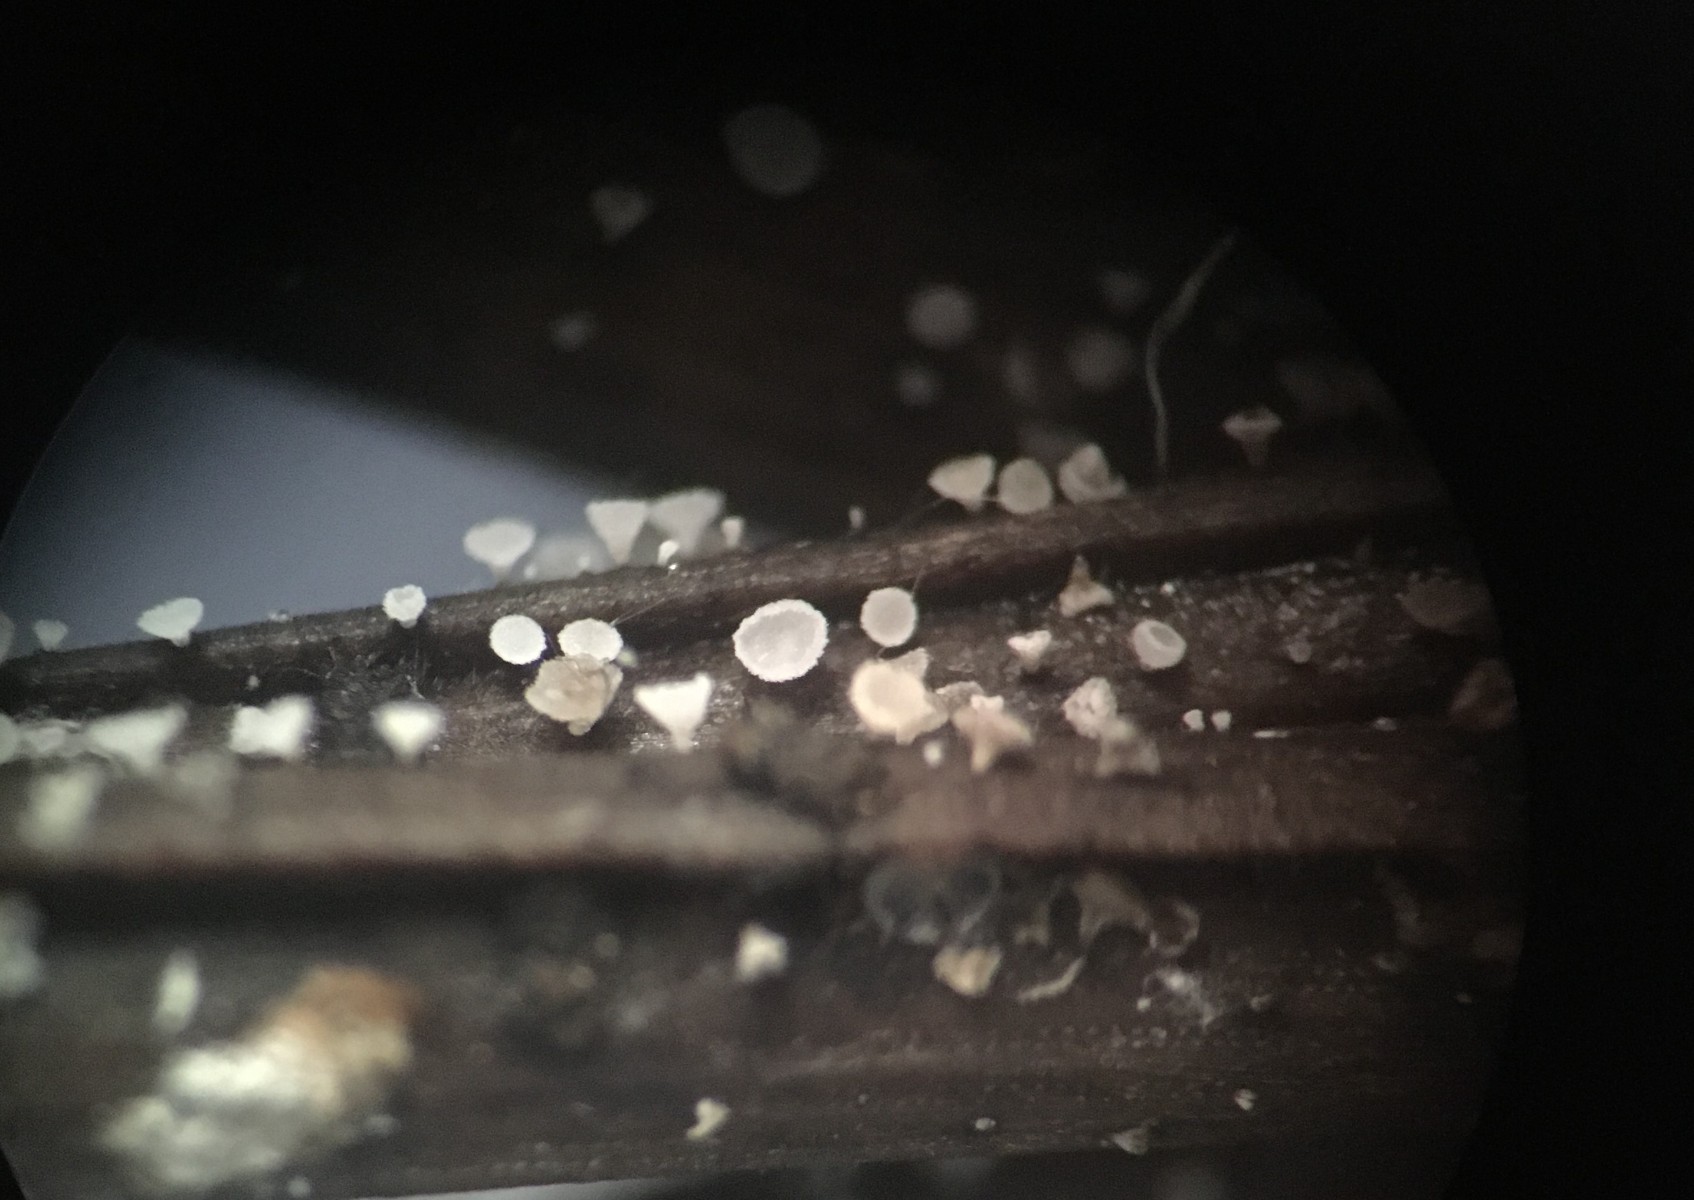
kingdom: Fungi
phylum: Ascomycota
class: Leotiomycetes
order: Helotiales
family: Hyaloscyphaceae
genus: Cistella
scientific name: Cistella acuum
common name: nåle-sirskive
